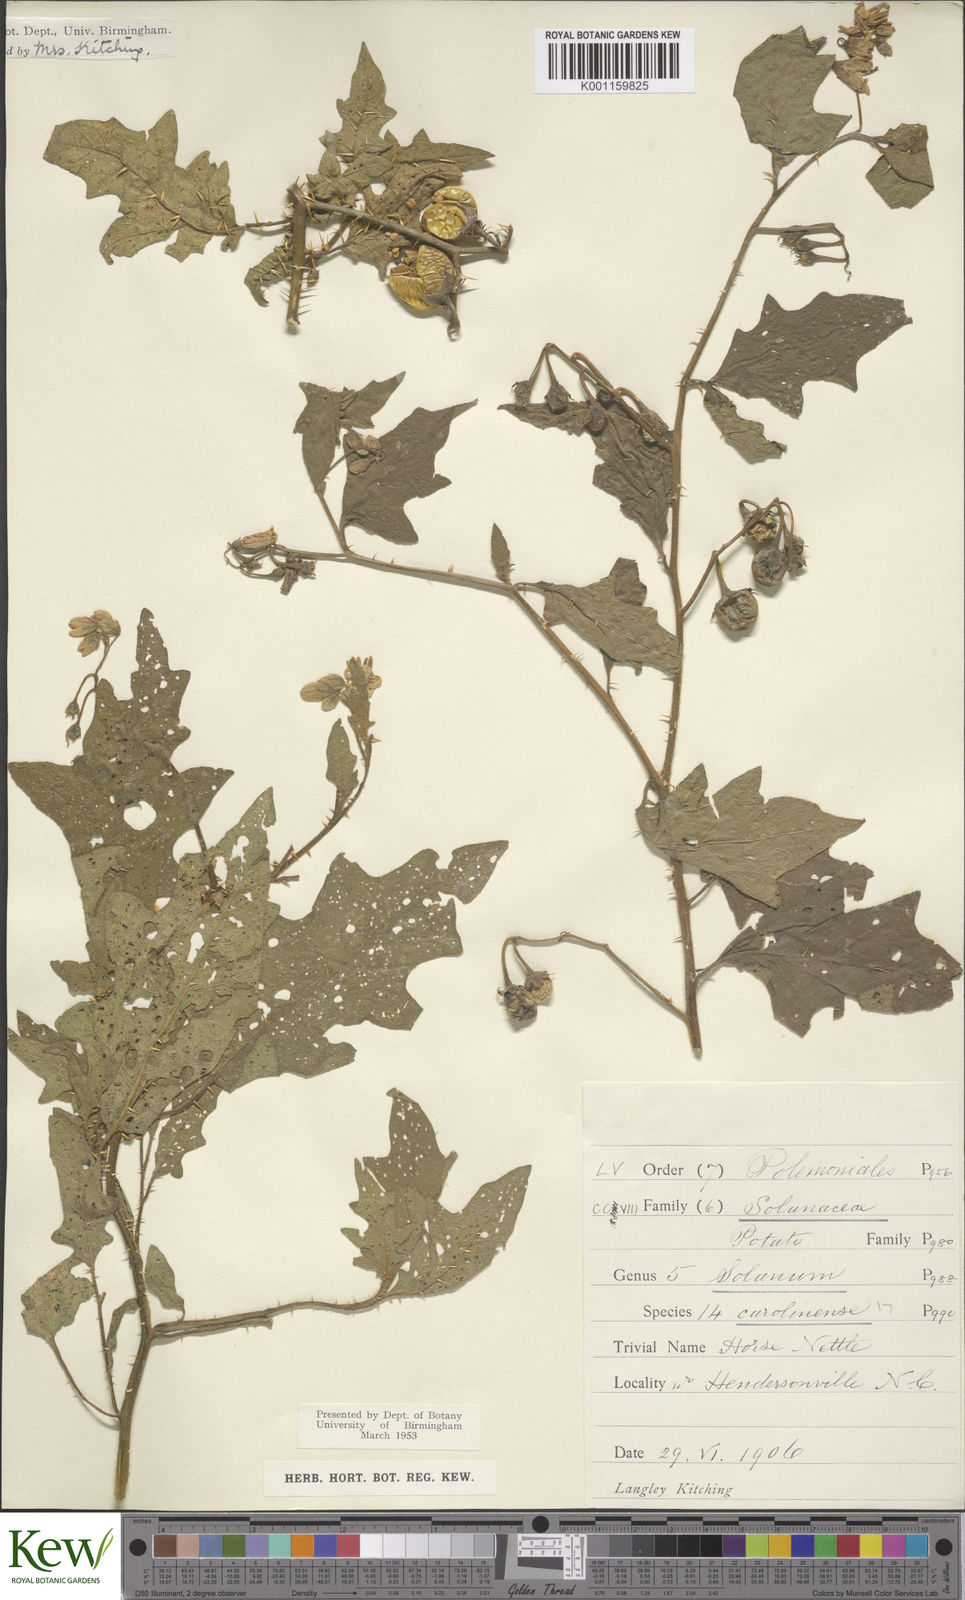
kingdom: Plantae
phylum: Tracheophyta
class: Magnoliopsida
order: Solanales
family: Solanaceae
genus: Solanum
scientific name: Solanum carolinense
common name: Horse-nettle
